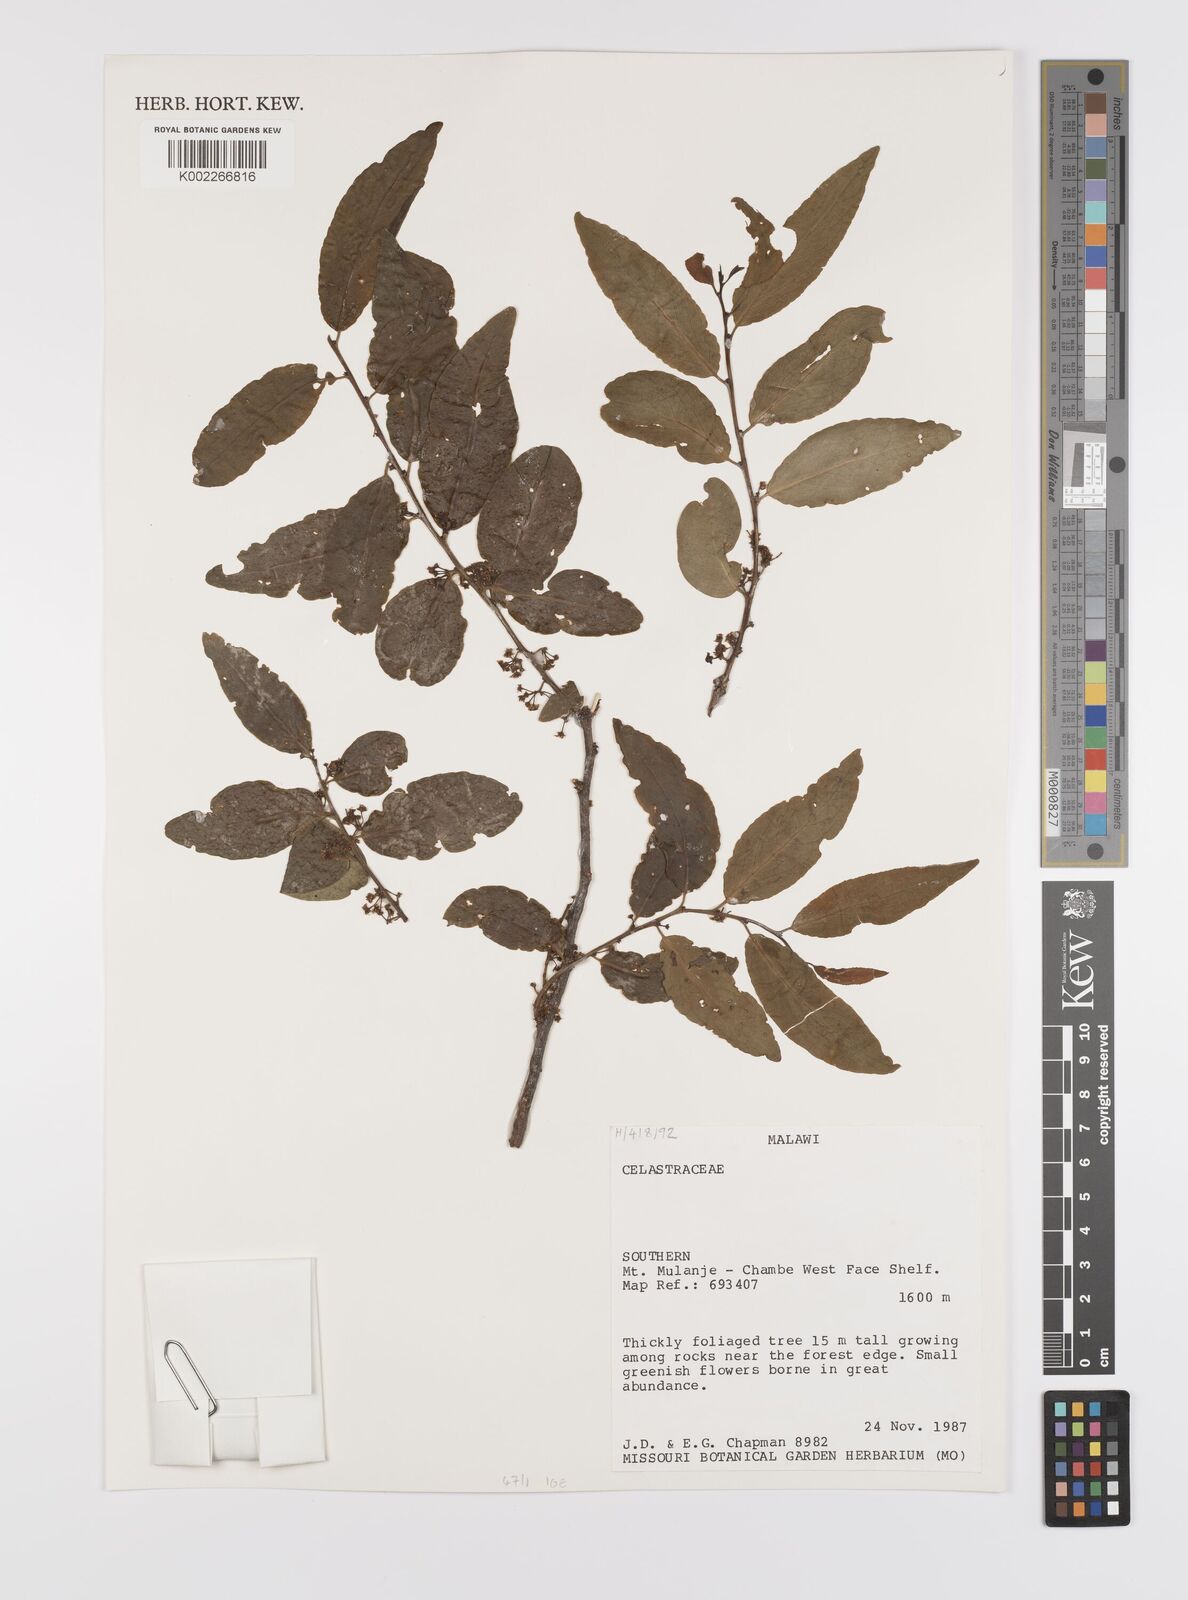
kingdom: Plantae
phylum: Tracheophyta
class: Magnoliopsida
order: Celastrales
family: Celastraceae
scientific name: Celastraceae
